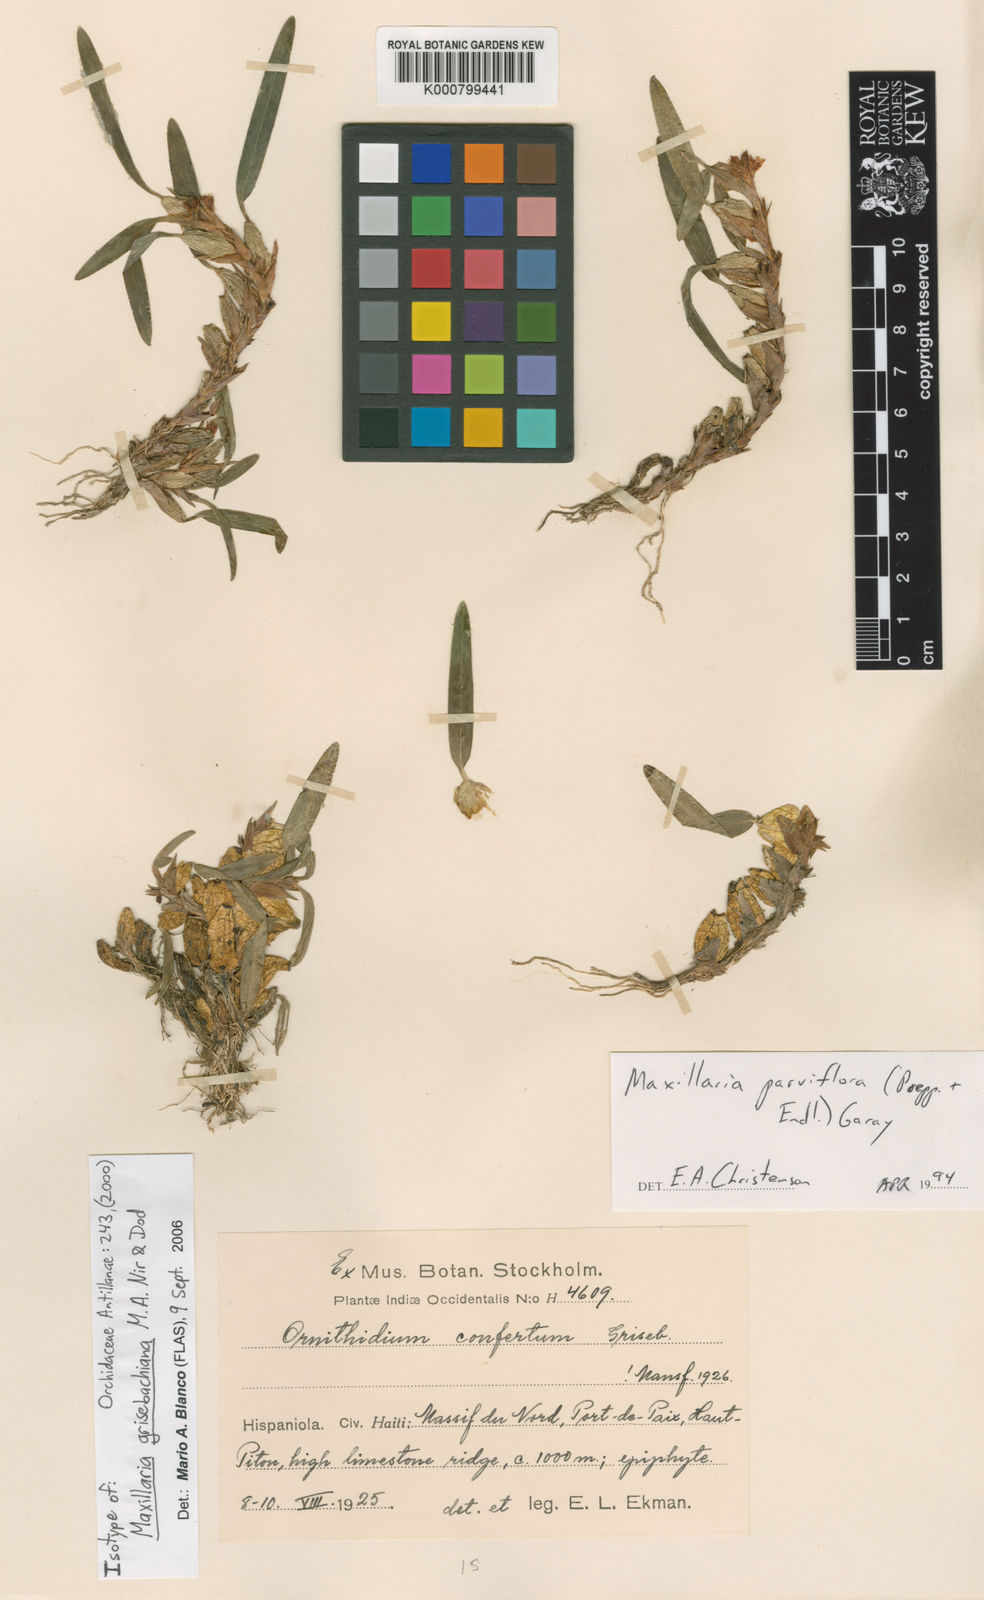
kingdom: Plantae
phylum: Tracheophyta
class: Liliopsida
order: Asparagales
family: Orchidaceae
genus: Maxillaria
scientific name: Maxillaria grisebachiana
